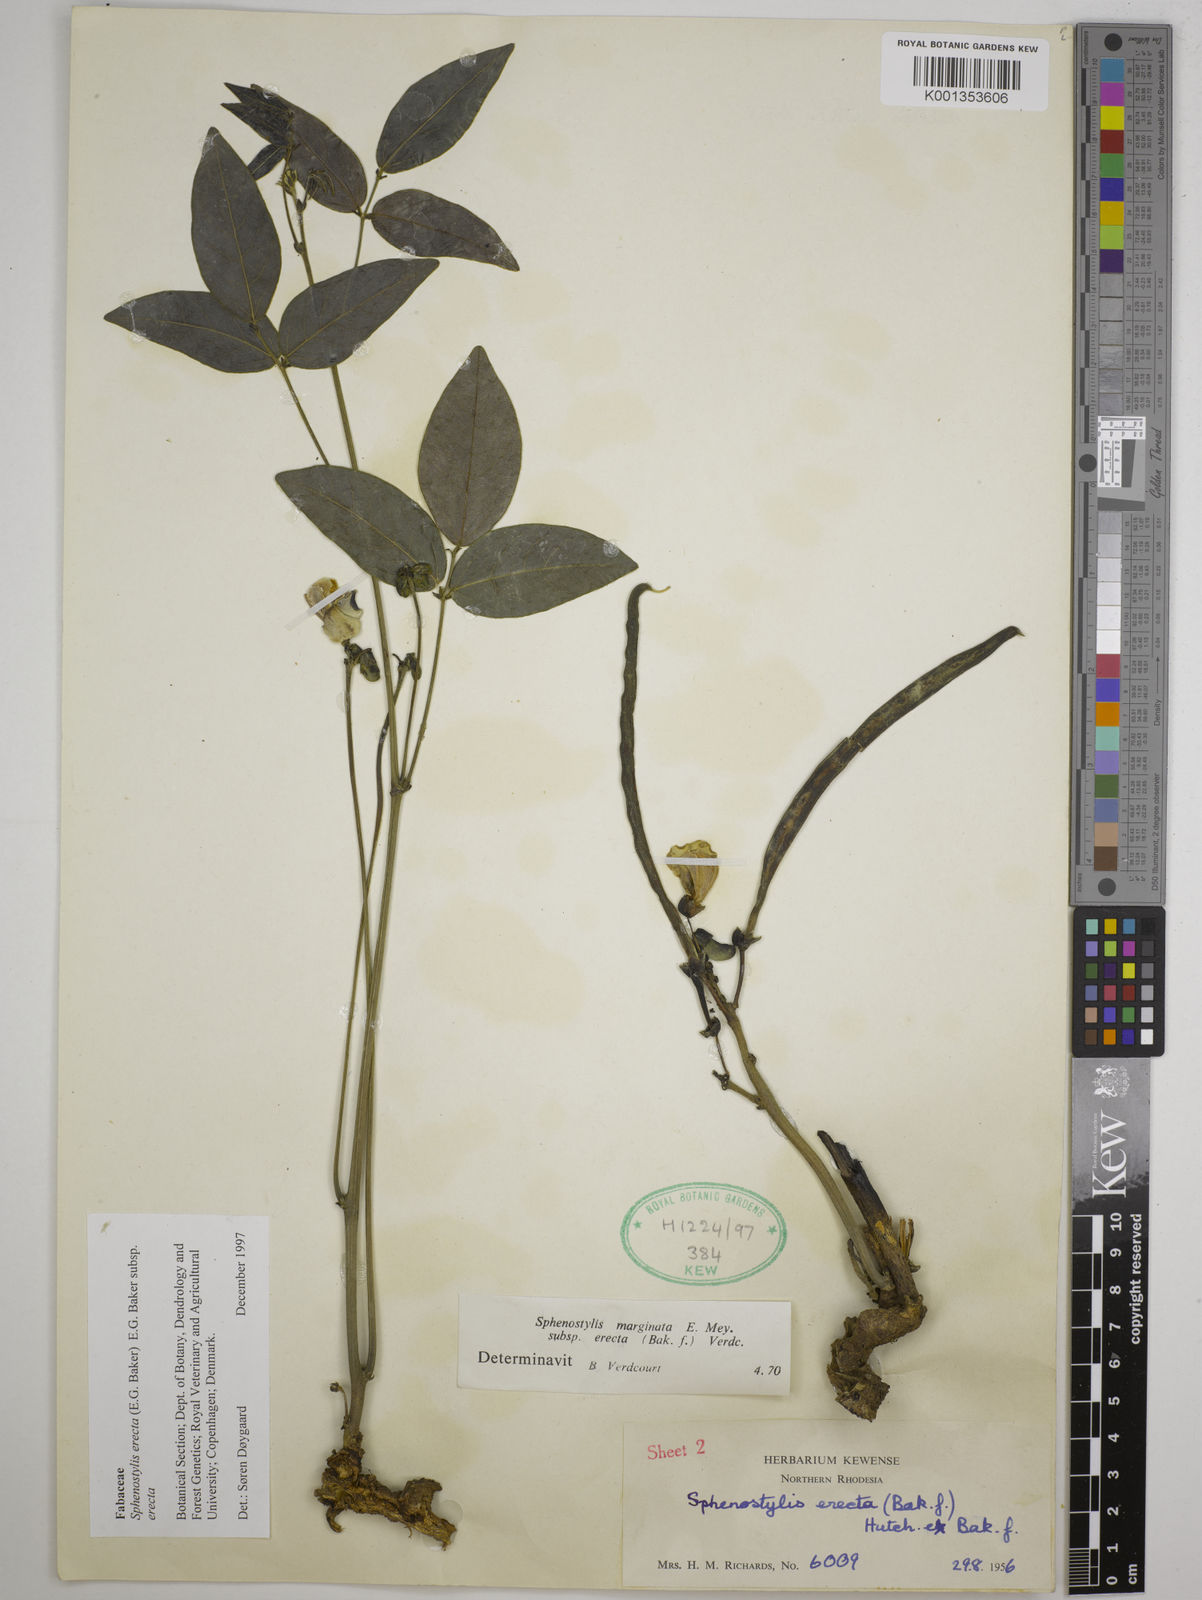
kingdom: Plantae
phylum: Tracheophyta
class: Magnoliopsida
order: Fabales
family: Fabaceae
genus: Sphenostylis
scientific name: Sphenostylis erecta
